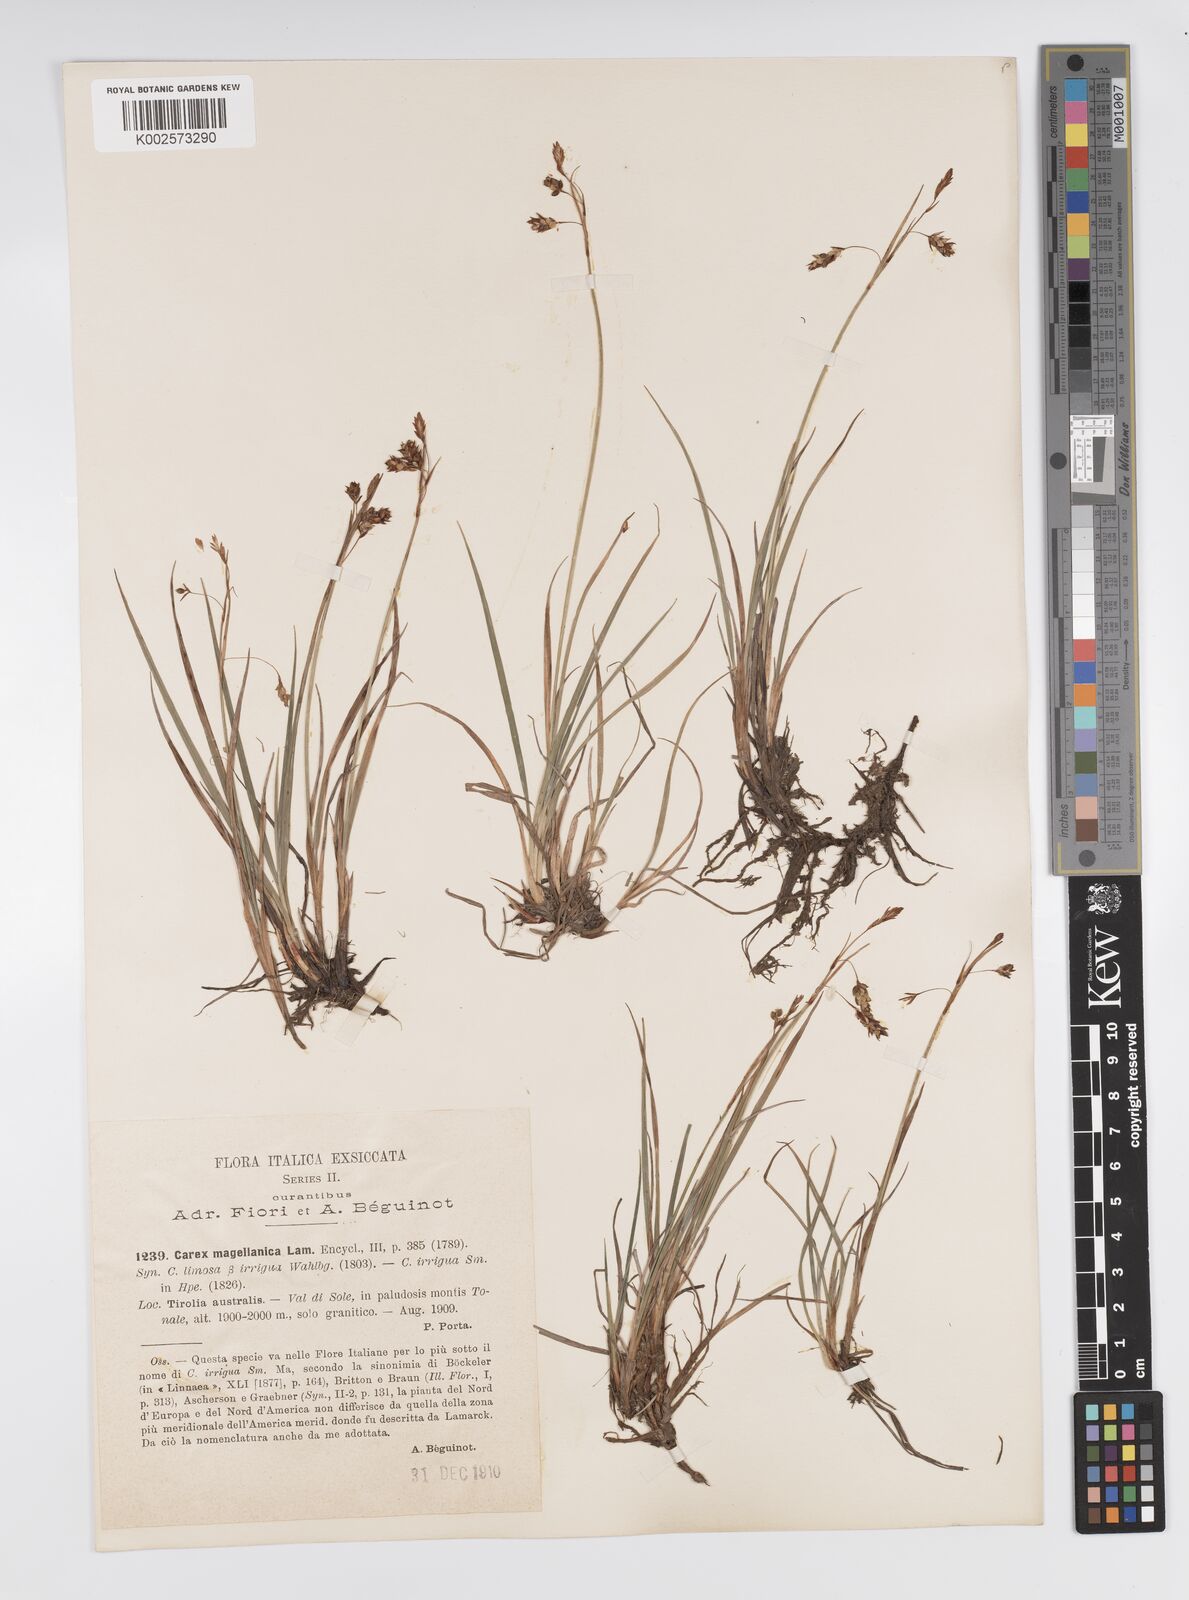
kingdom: Plantae
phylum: Tracheophyta
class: Liliopsida
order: Poales
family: Cyperaceae
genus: Carex
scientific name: Carex magellanica
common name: Bog sedge
